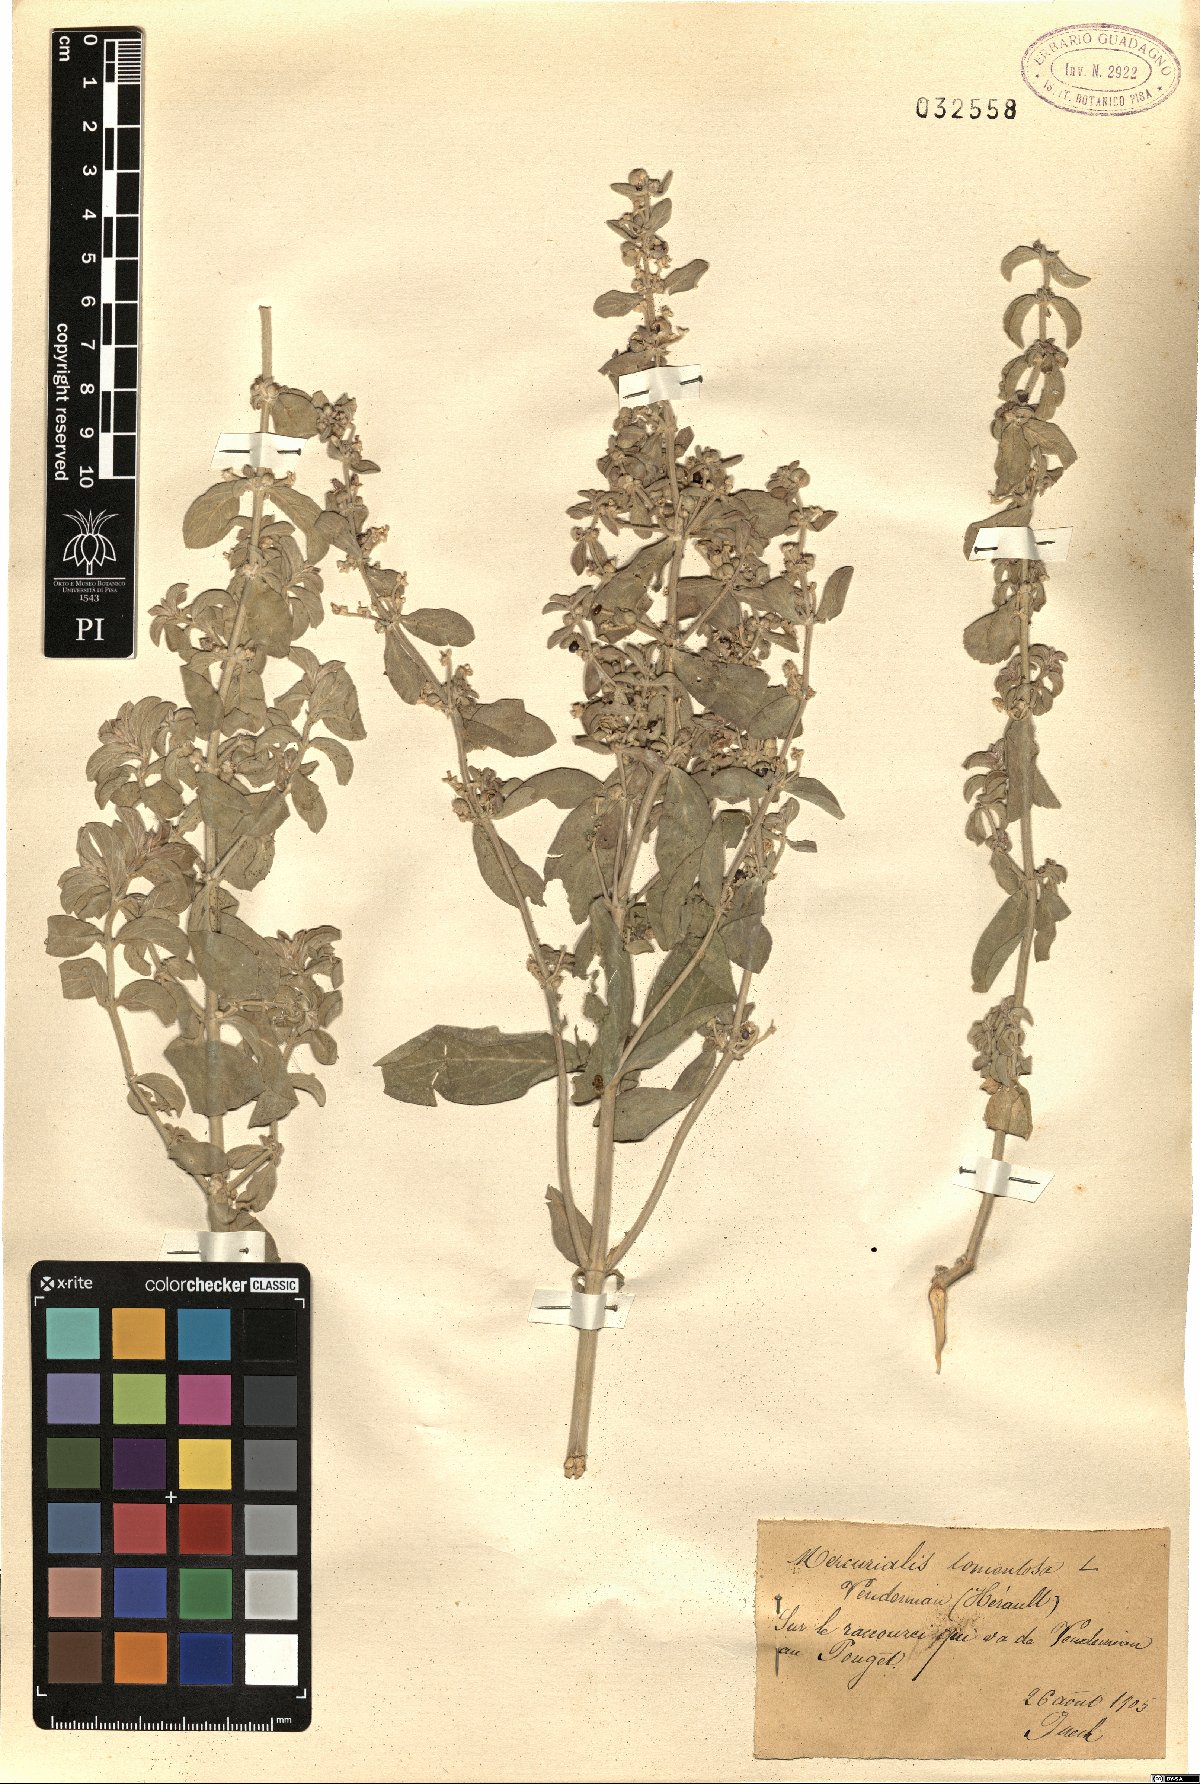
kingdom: Plantae
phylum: Tracheophyta
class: Magnoliopsida
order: Malpighiales
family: Euphorbiaceae
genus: Mercurialis
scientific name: Mercurialis tomentosa
